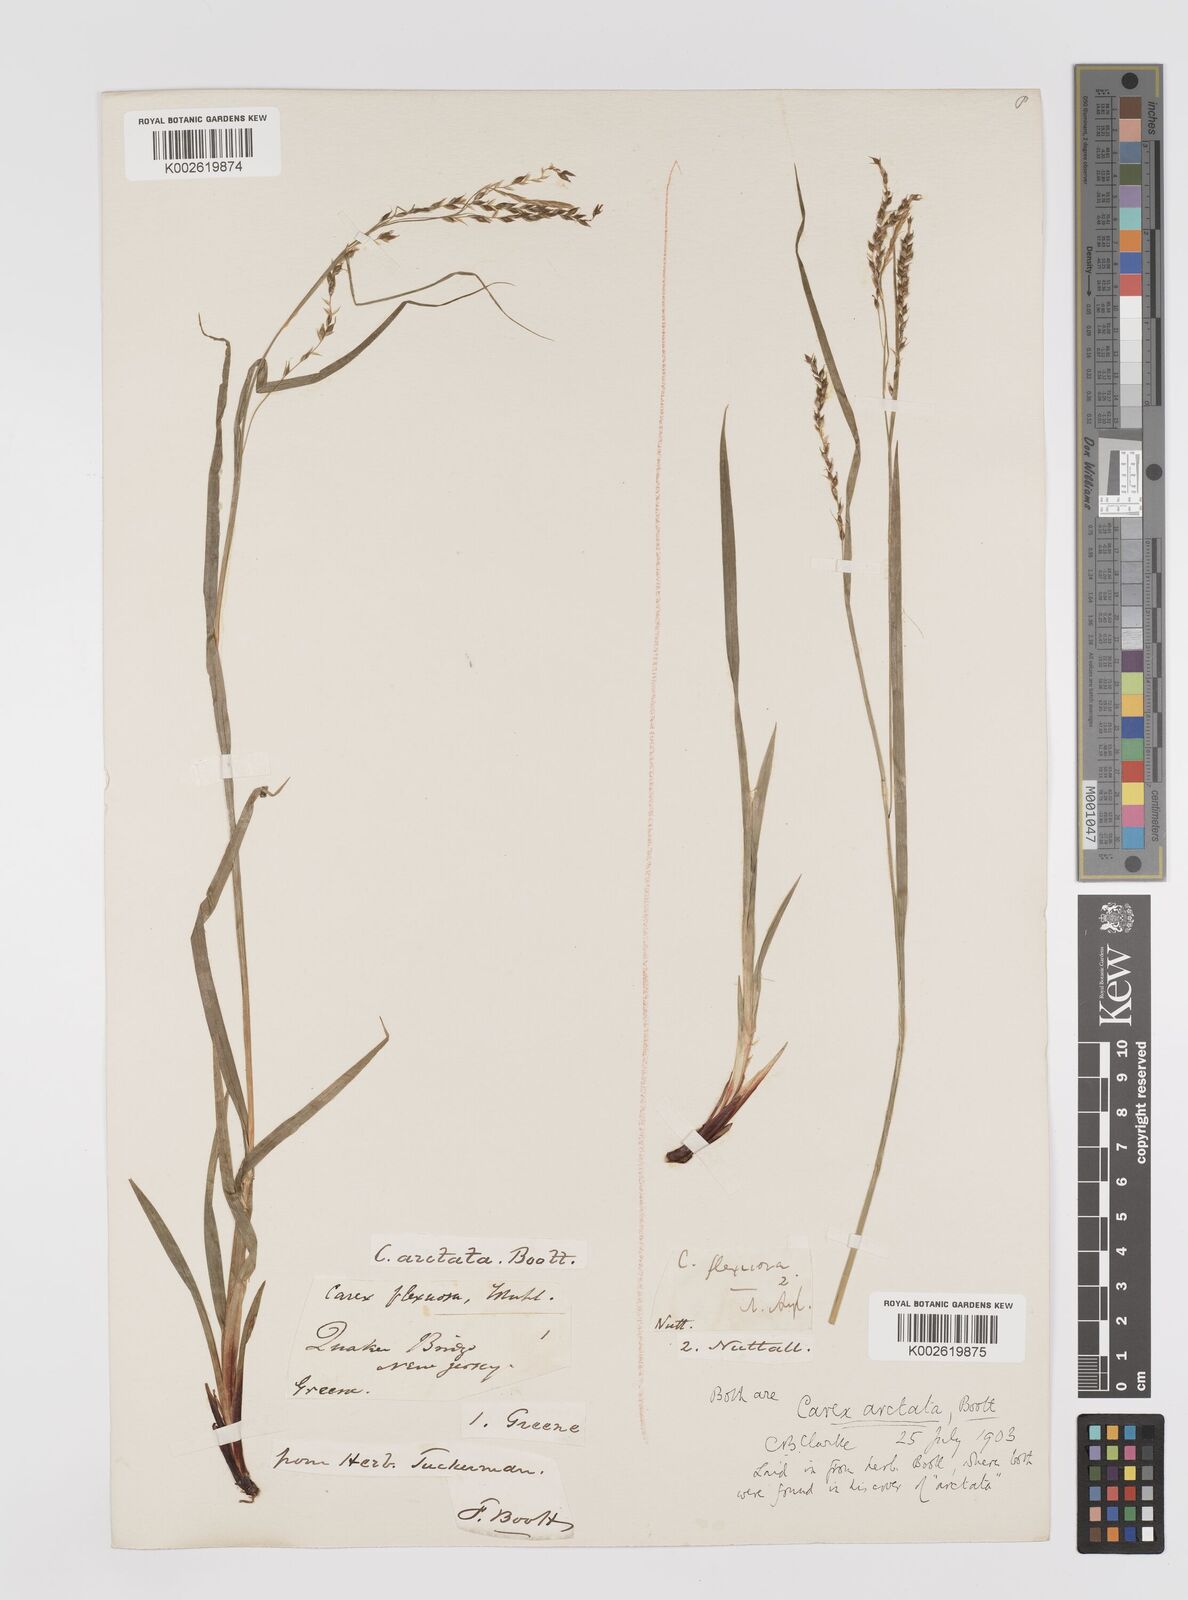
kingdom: Plantae
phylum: Tracheophyta
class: Liliopsida
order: Poales
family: Cyperaceae
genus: Carex
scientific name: Carex arctata
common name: Black sedge
